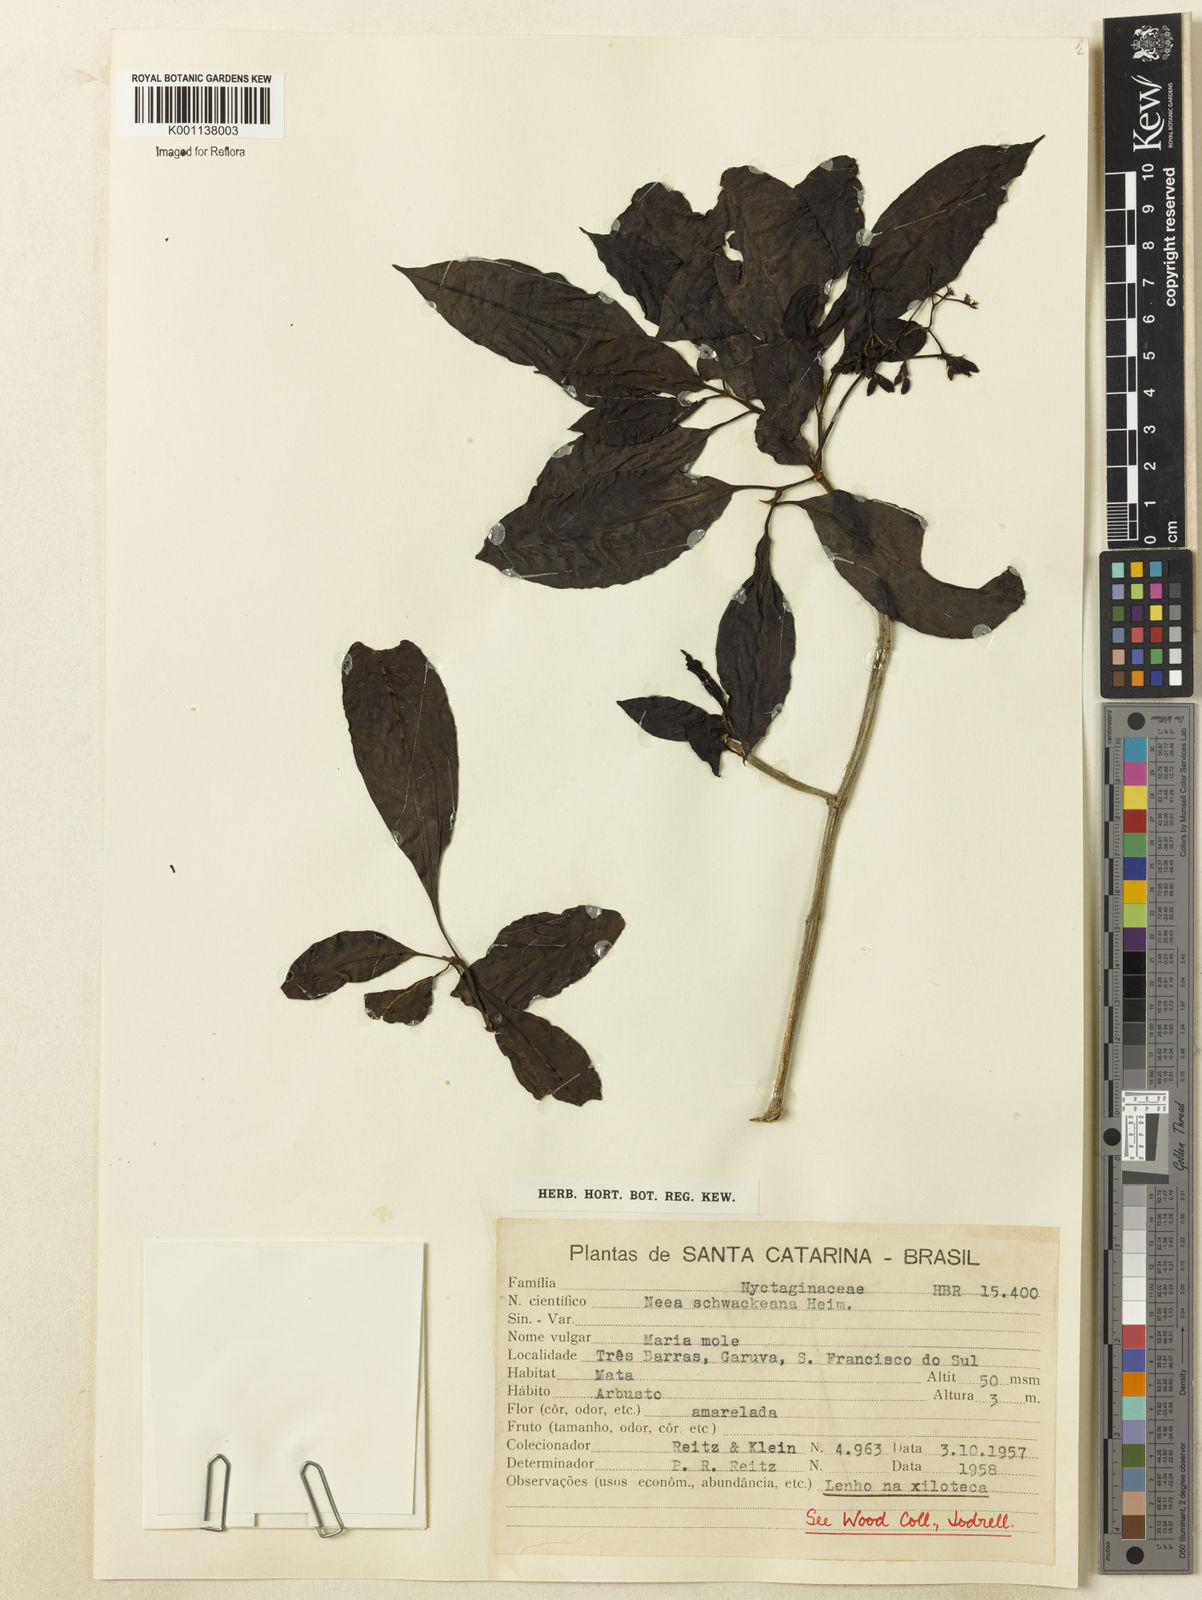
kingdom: Plantae
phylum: Tracheophyta
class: Magnoliopsida
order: Caryophyllales
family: Nyctaginaceae
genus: Neea
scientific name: Neea schwackeana
